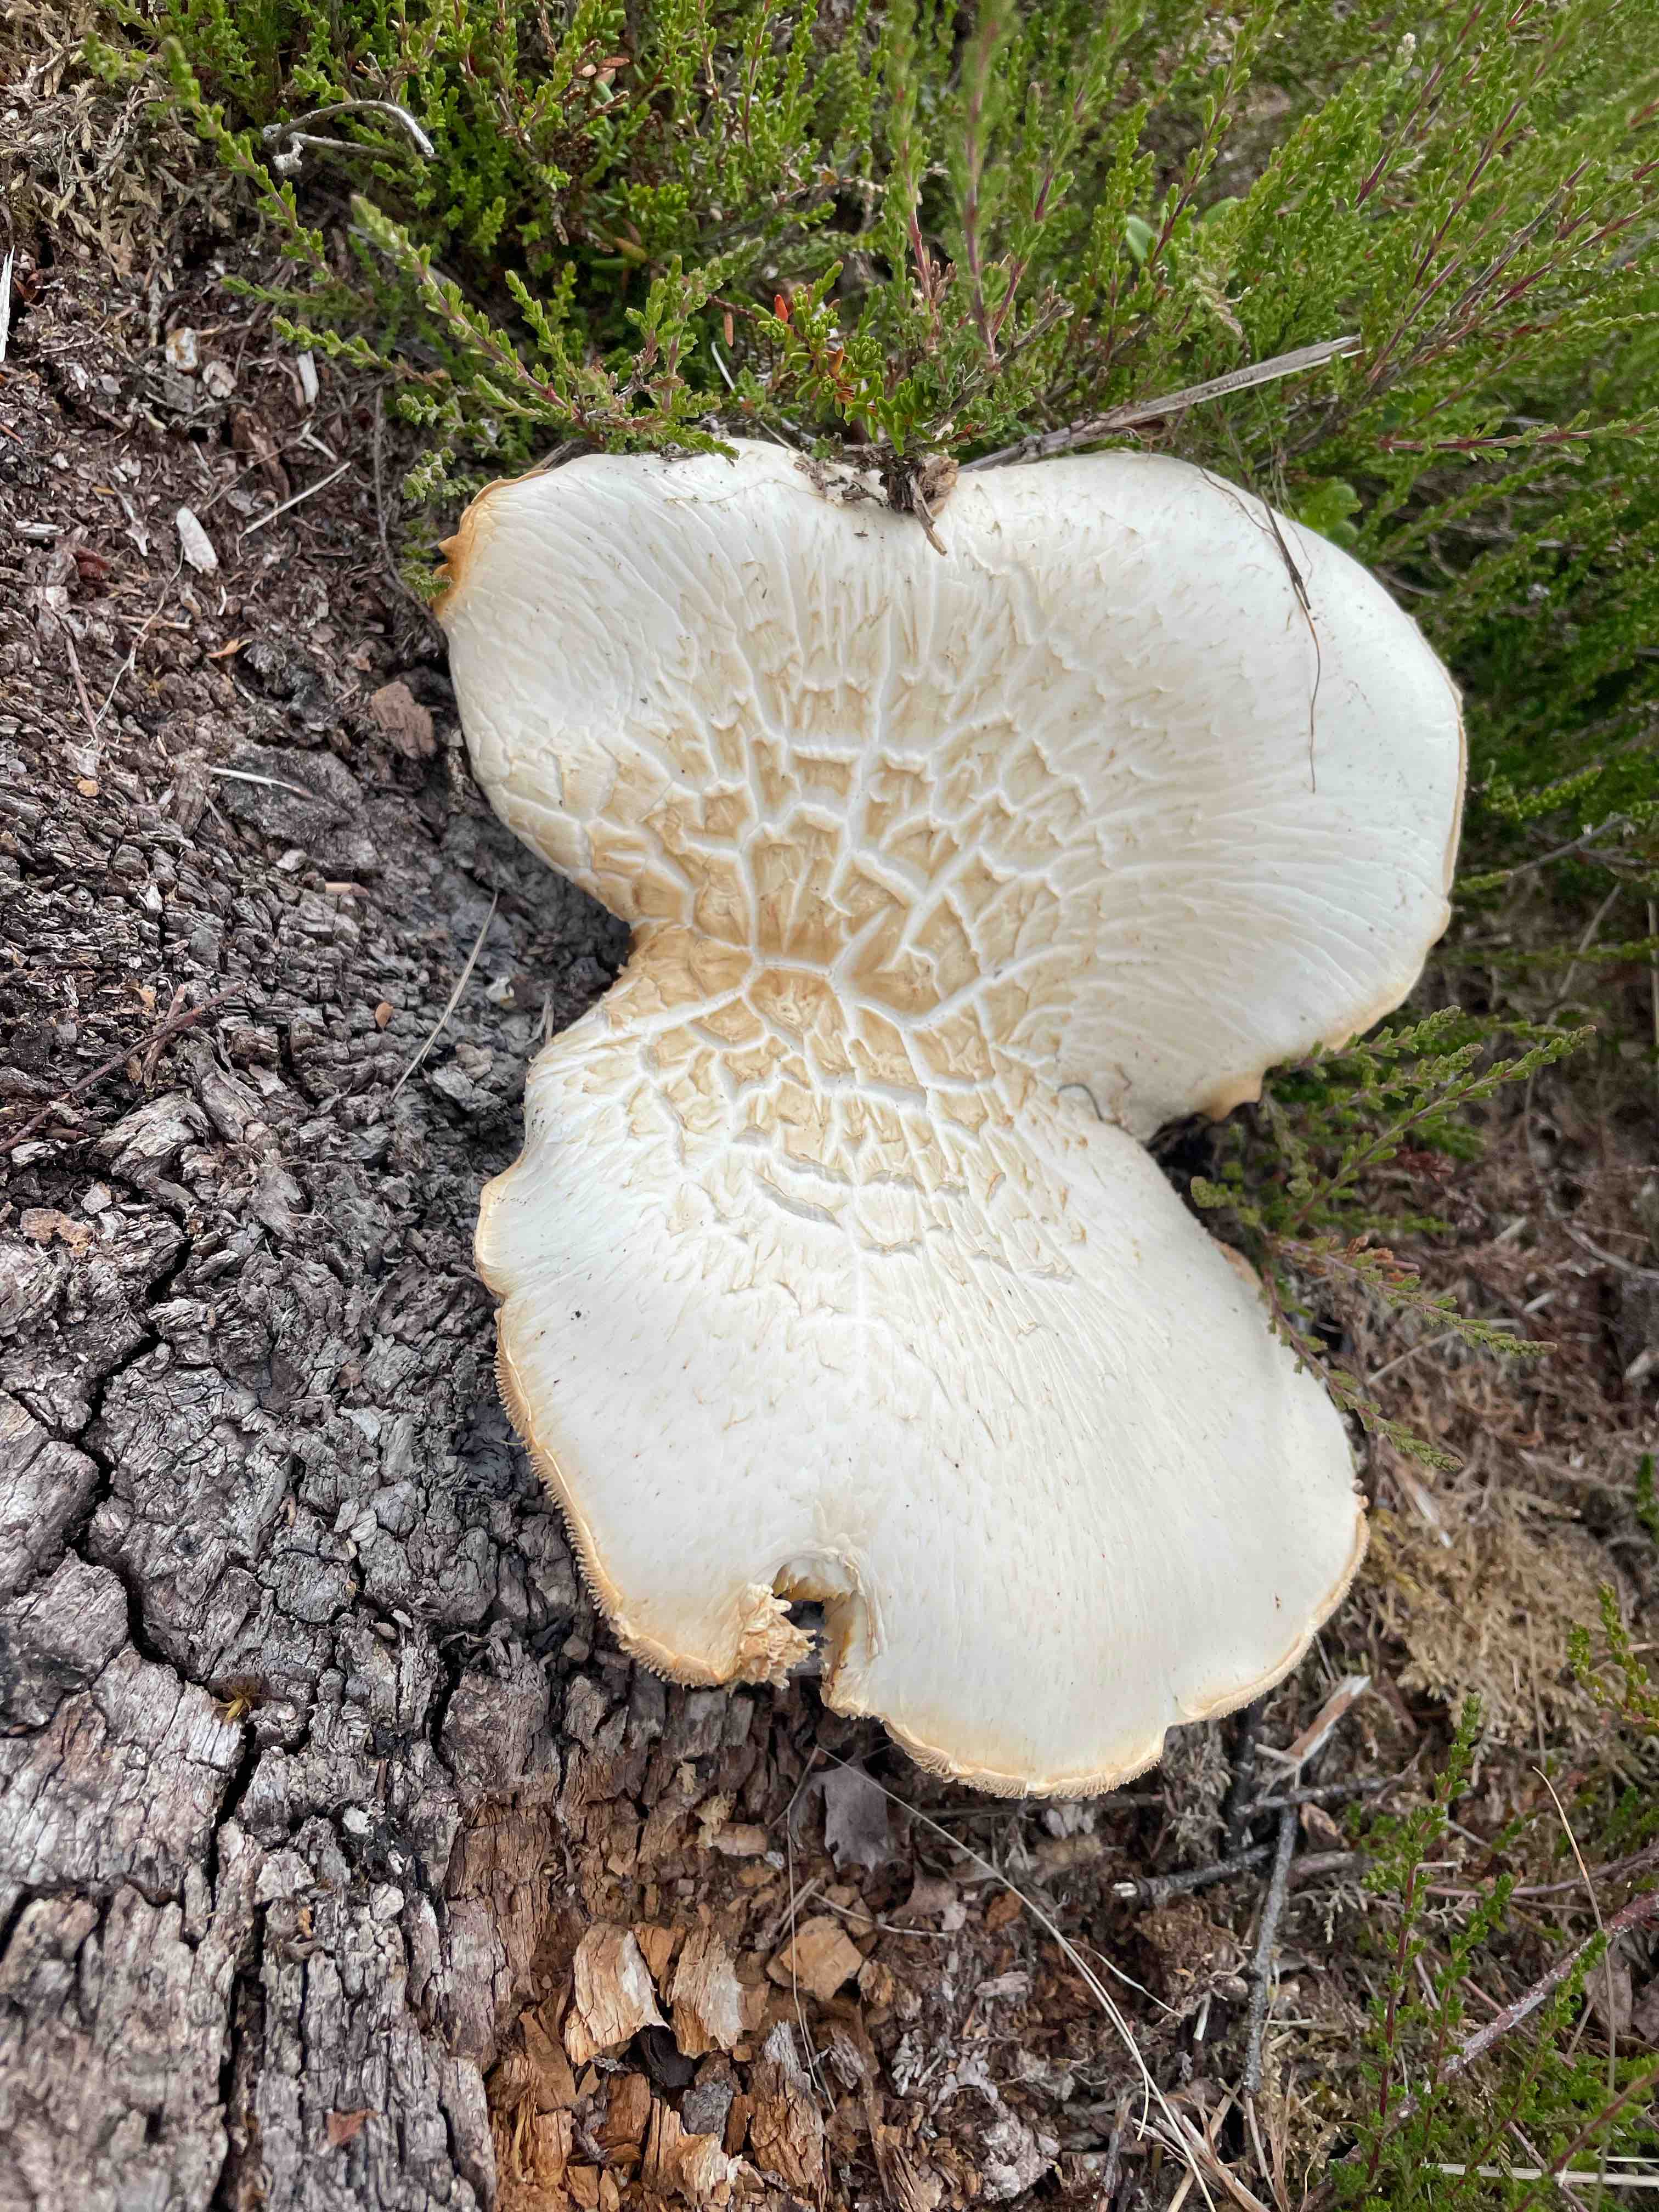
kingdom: Fungi
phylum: Basidiomycota
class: Agaricomycetes
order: Gloeophyllales
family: Gloeophyllaceae
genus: Neolentinus
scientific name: Neolentinus lepideus
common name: skællet sejhat
